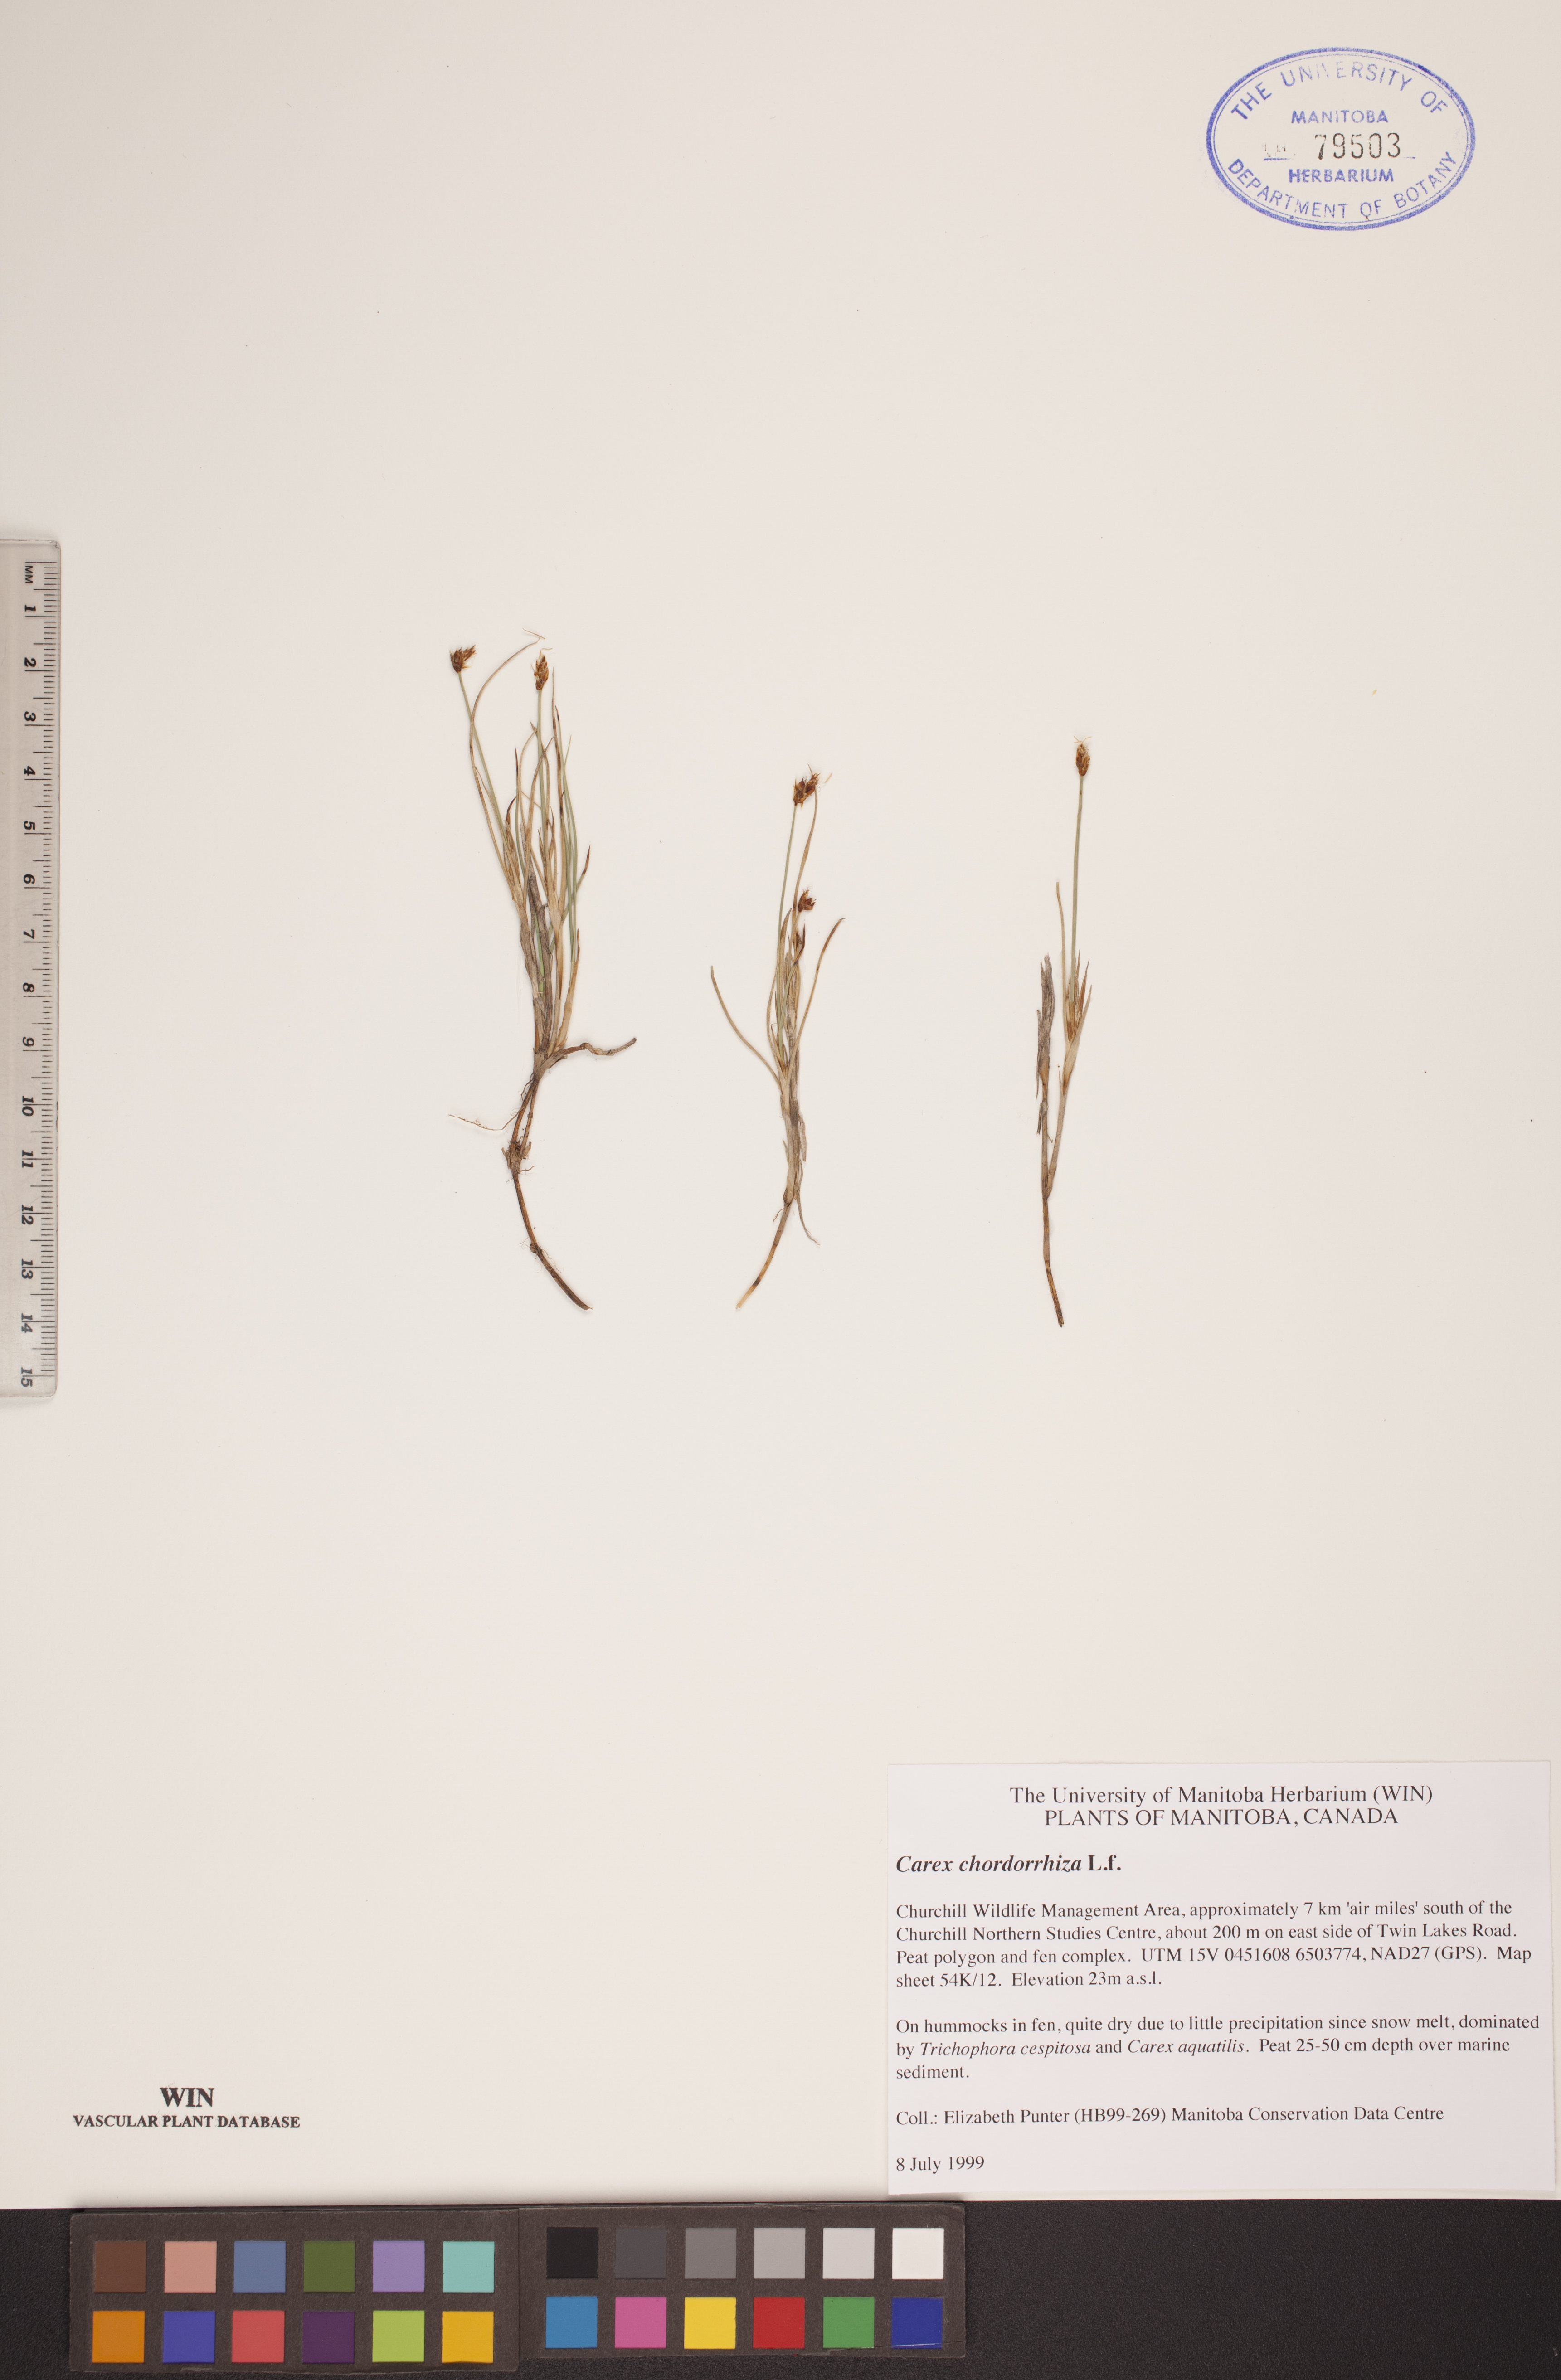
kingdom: Plantae
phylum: Tracheophyta
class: Liliopsida
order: Poales
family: Cyperaceae
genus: Carex
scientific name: Carex chordorrhiza
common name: String sedge
